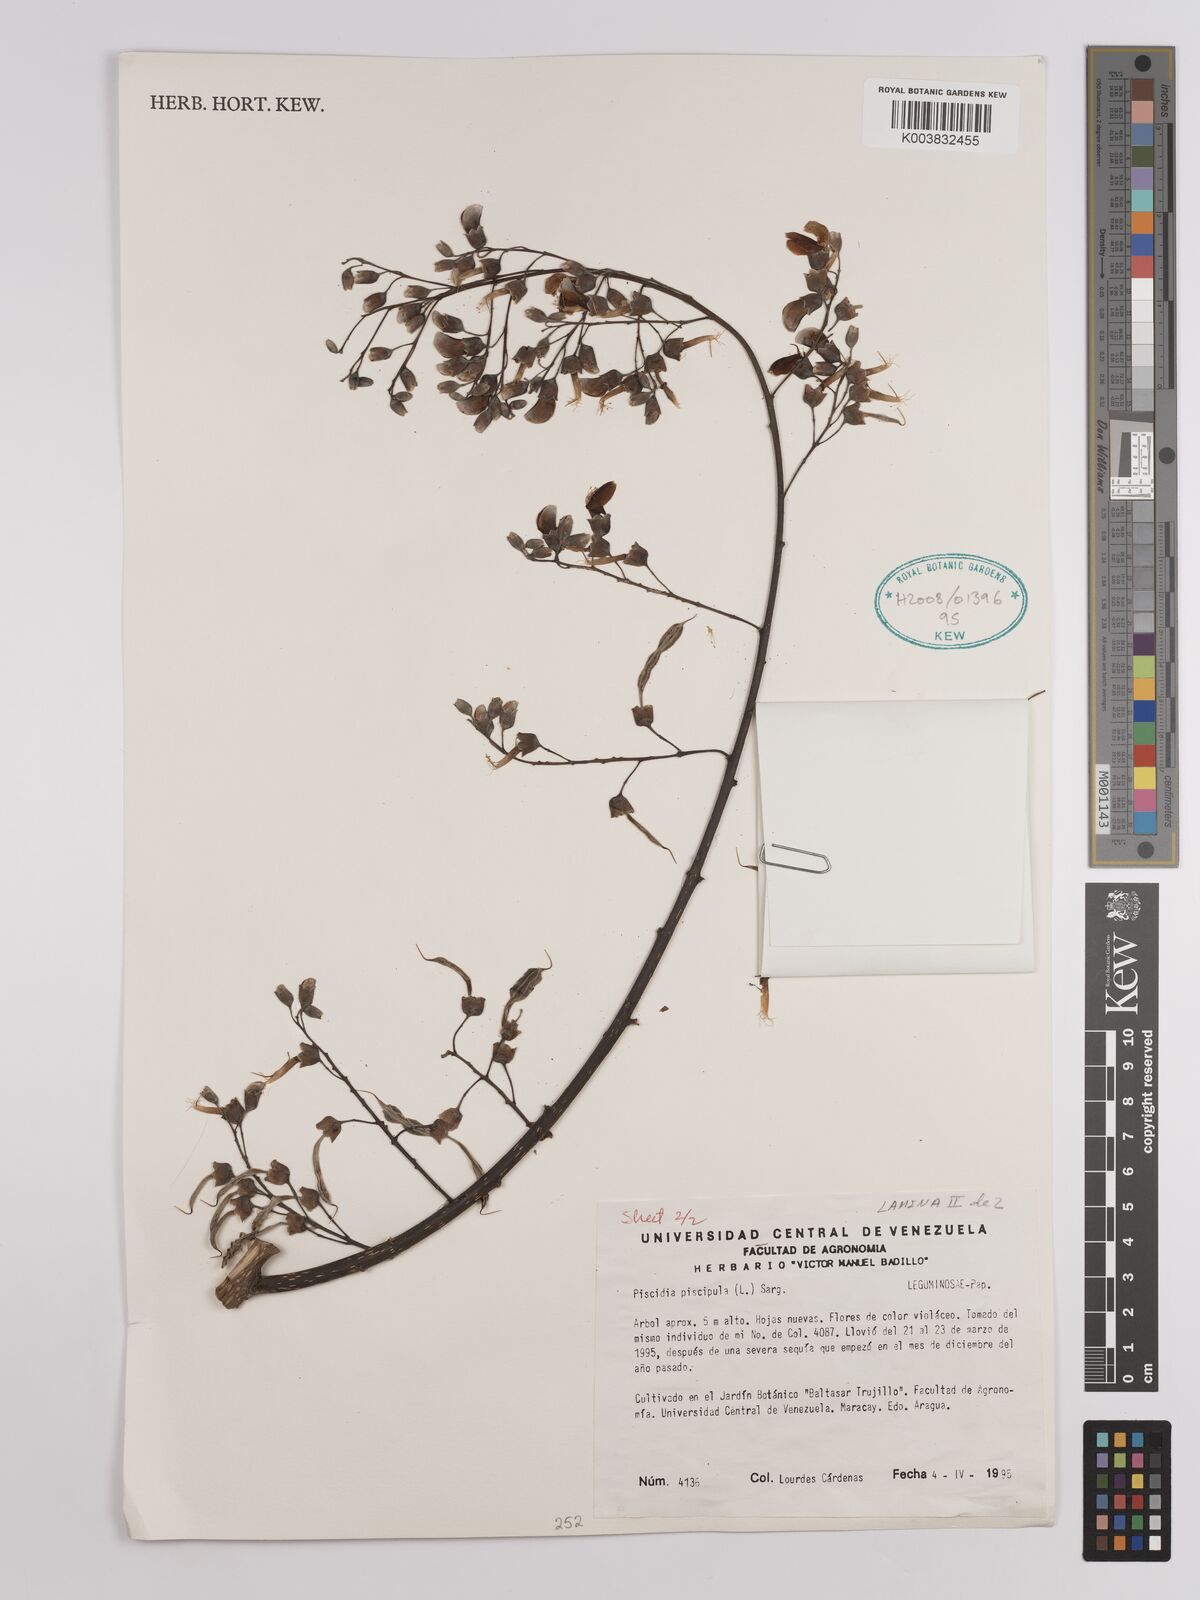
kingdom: Plantae
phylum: Tracheophyta
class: Magnoliopsida
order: Fabales
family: Fabaceae
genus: Piscidia
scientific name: Piscidia piscipula
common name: Florida fishpoison tree
